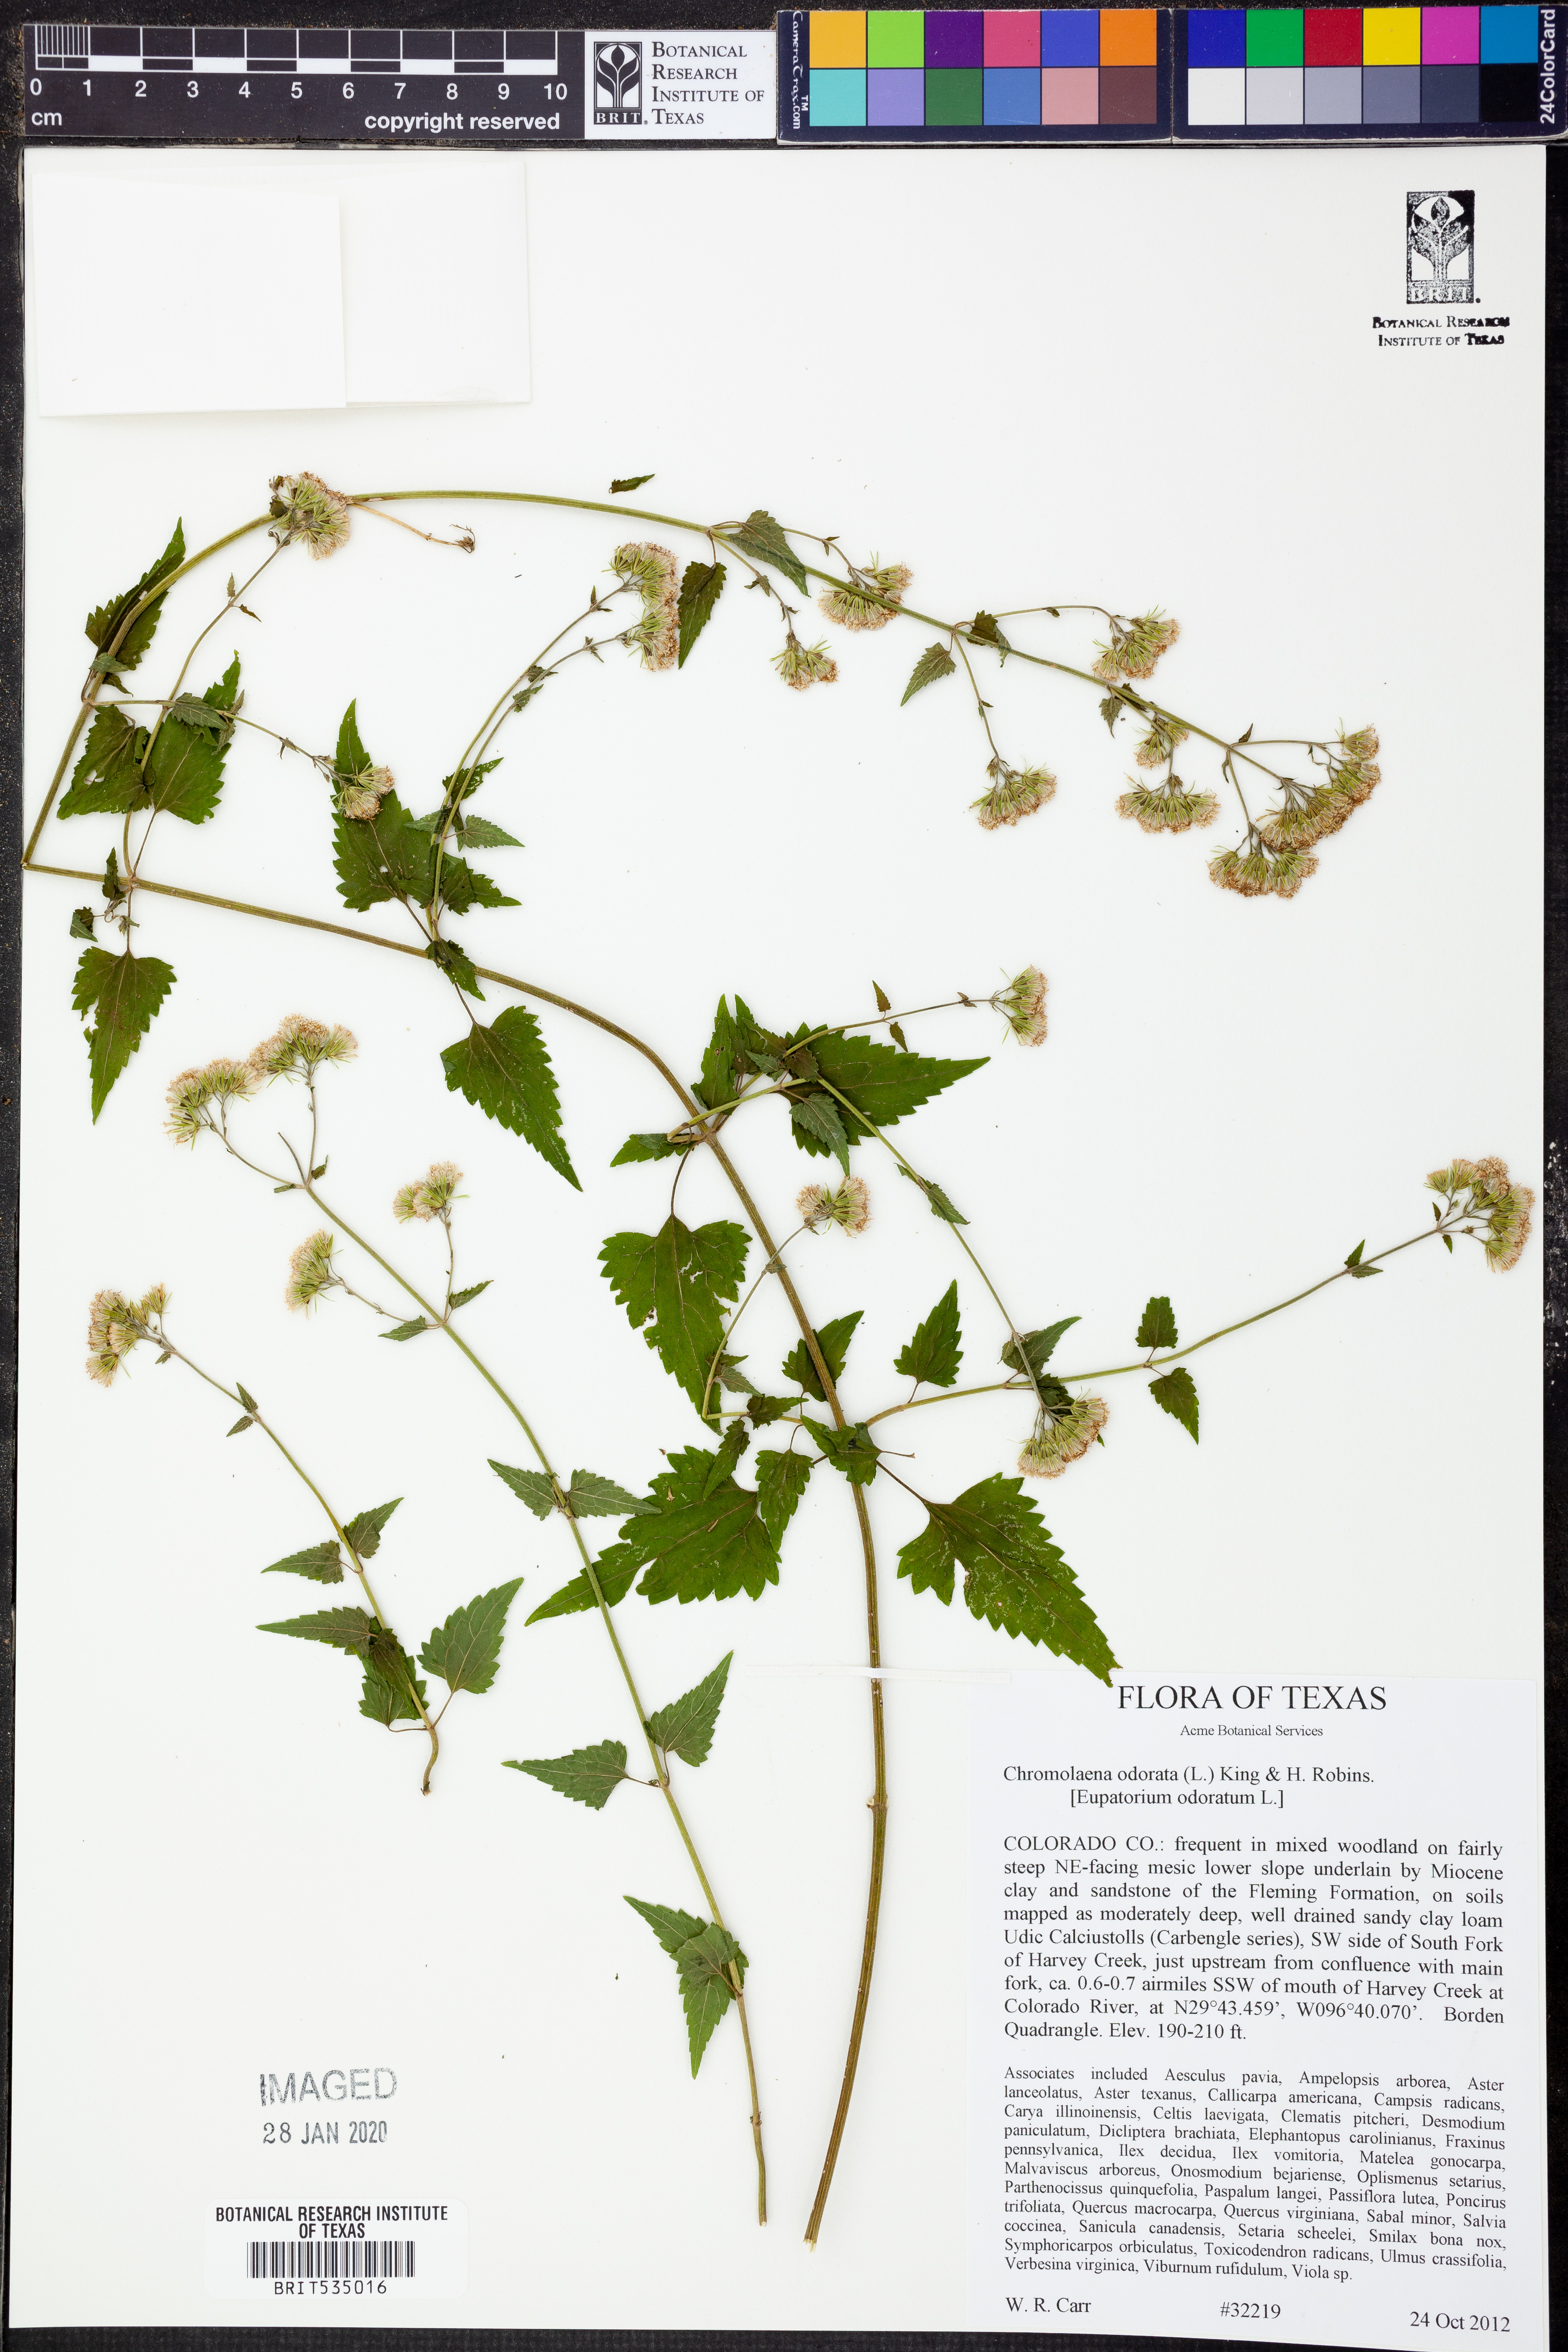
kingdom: Plantae
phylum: Tracheophyta
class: Magnoliopsida
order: Asterales
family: Asteraceae
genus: Chromolaena
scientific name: Chromolaena odorata
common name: Siamweed
